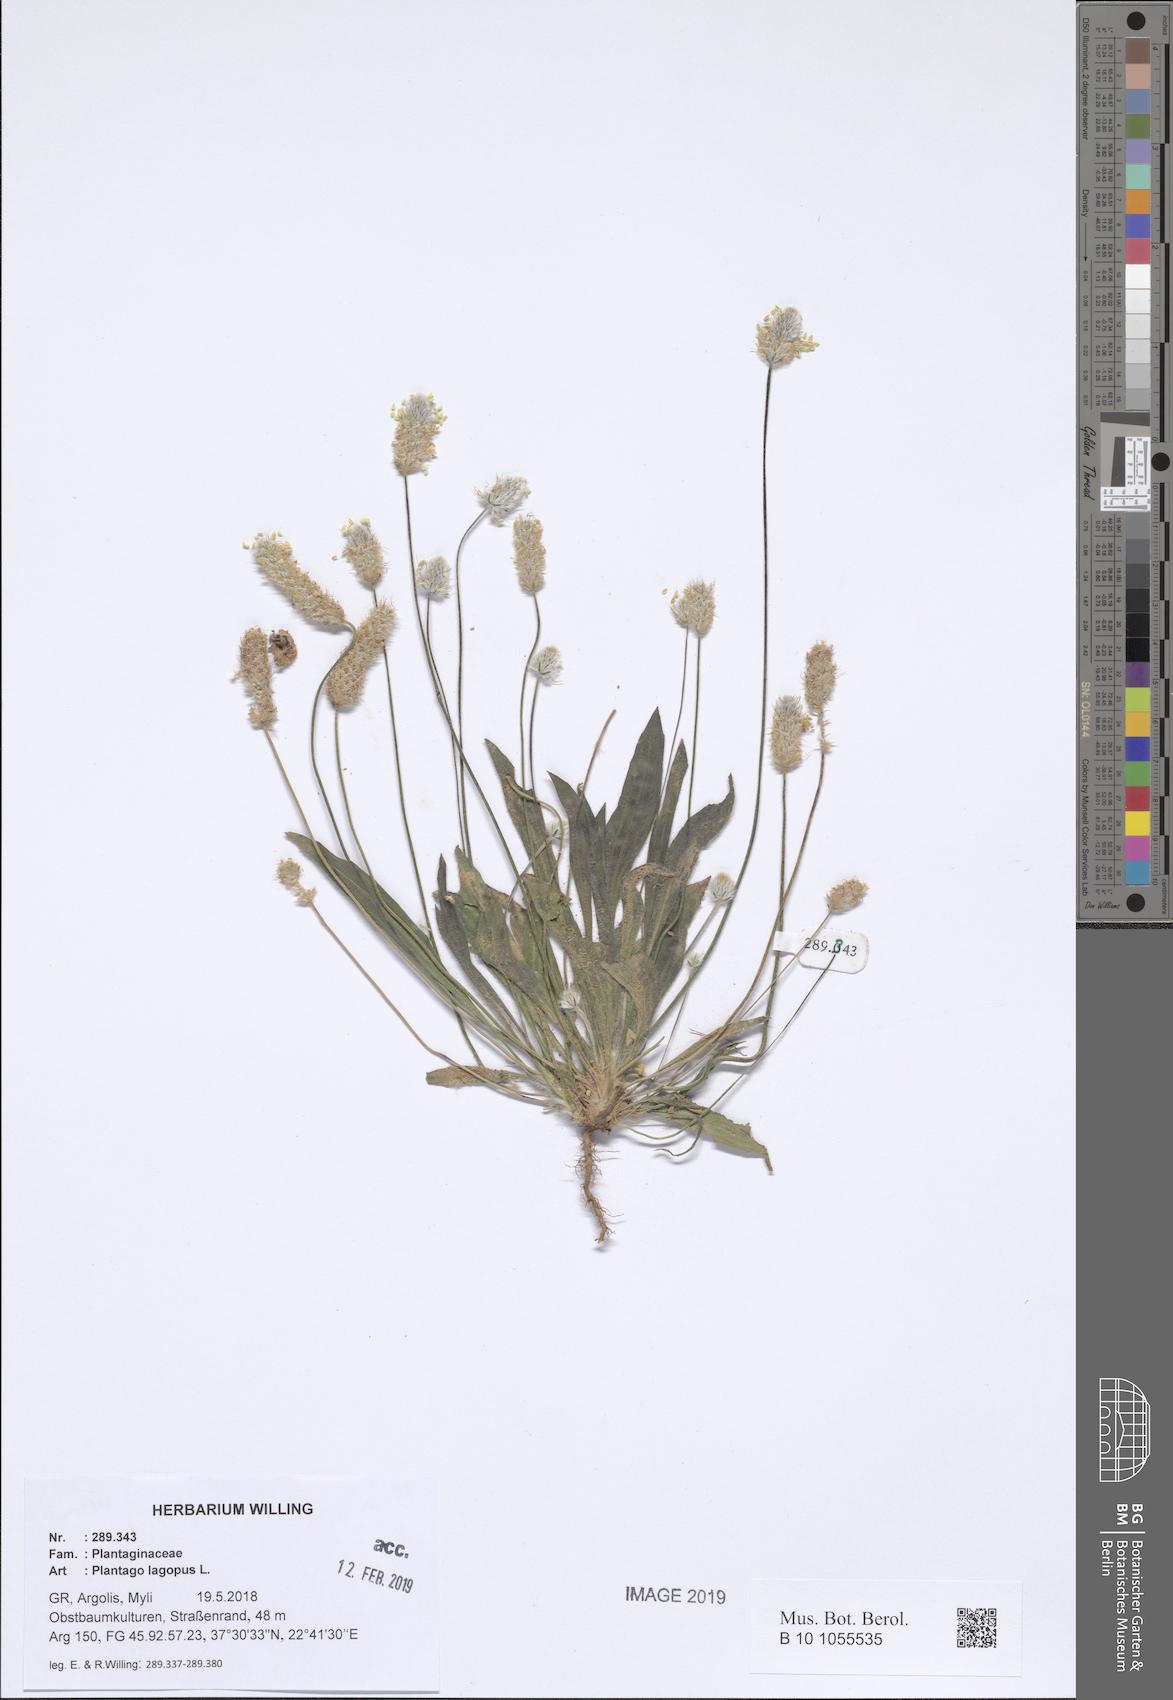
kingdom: Plantae
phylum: Tracheophyta
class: Magnoliopsida
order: Lamiales
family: Plantaginaceae
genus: Plantago
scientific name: Plantago lagopus
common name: Hare-foot plantain
